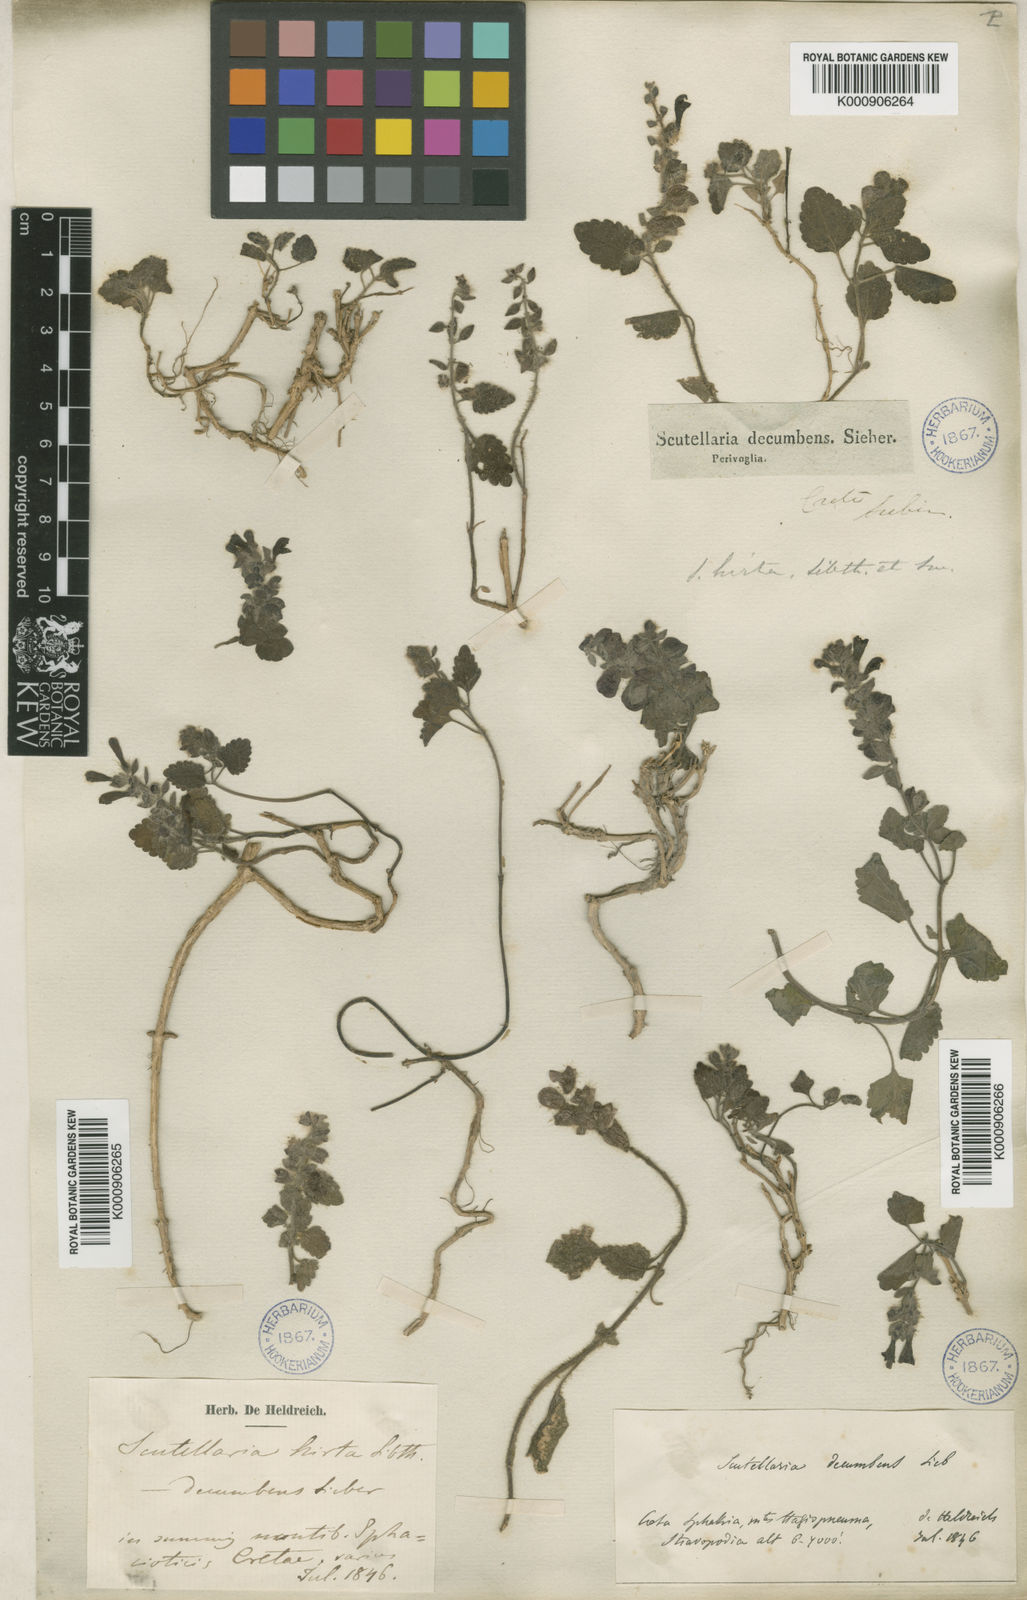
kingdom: Plantae
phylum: Tracheophyta
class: Magnoliopsida
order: Lamiales
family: Lamiaceae
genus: Scutellaria
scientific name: Scutellaria hirta
